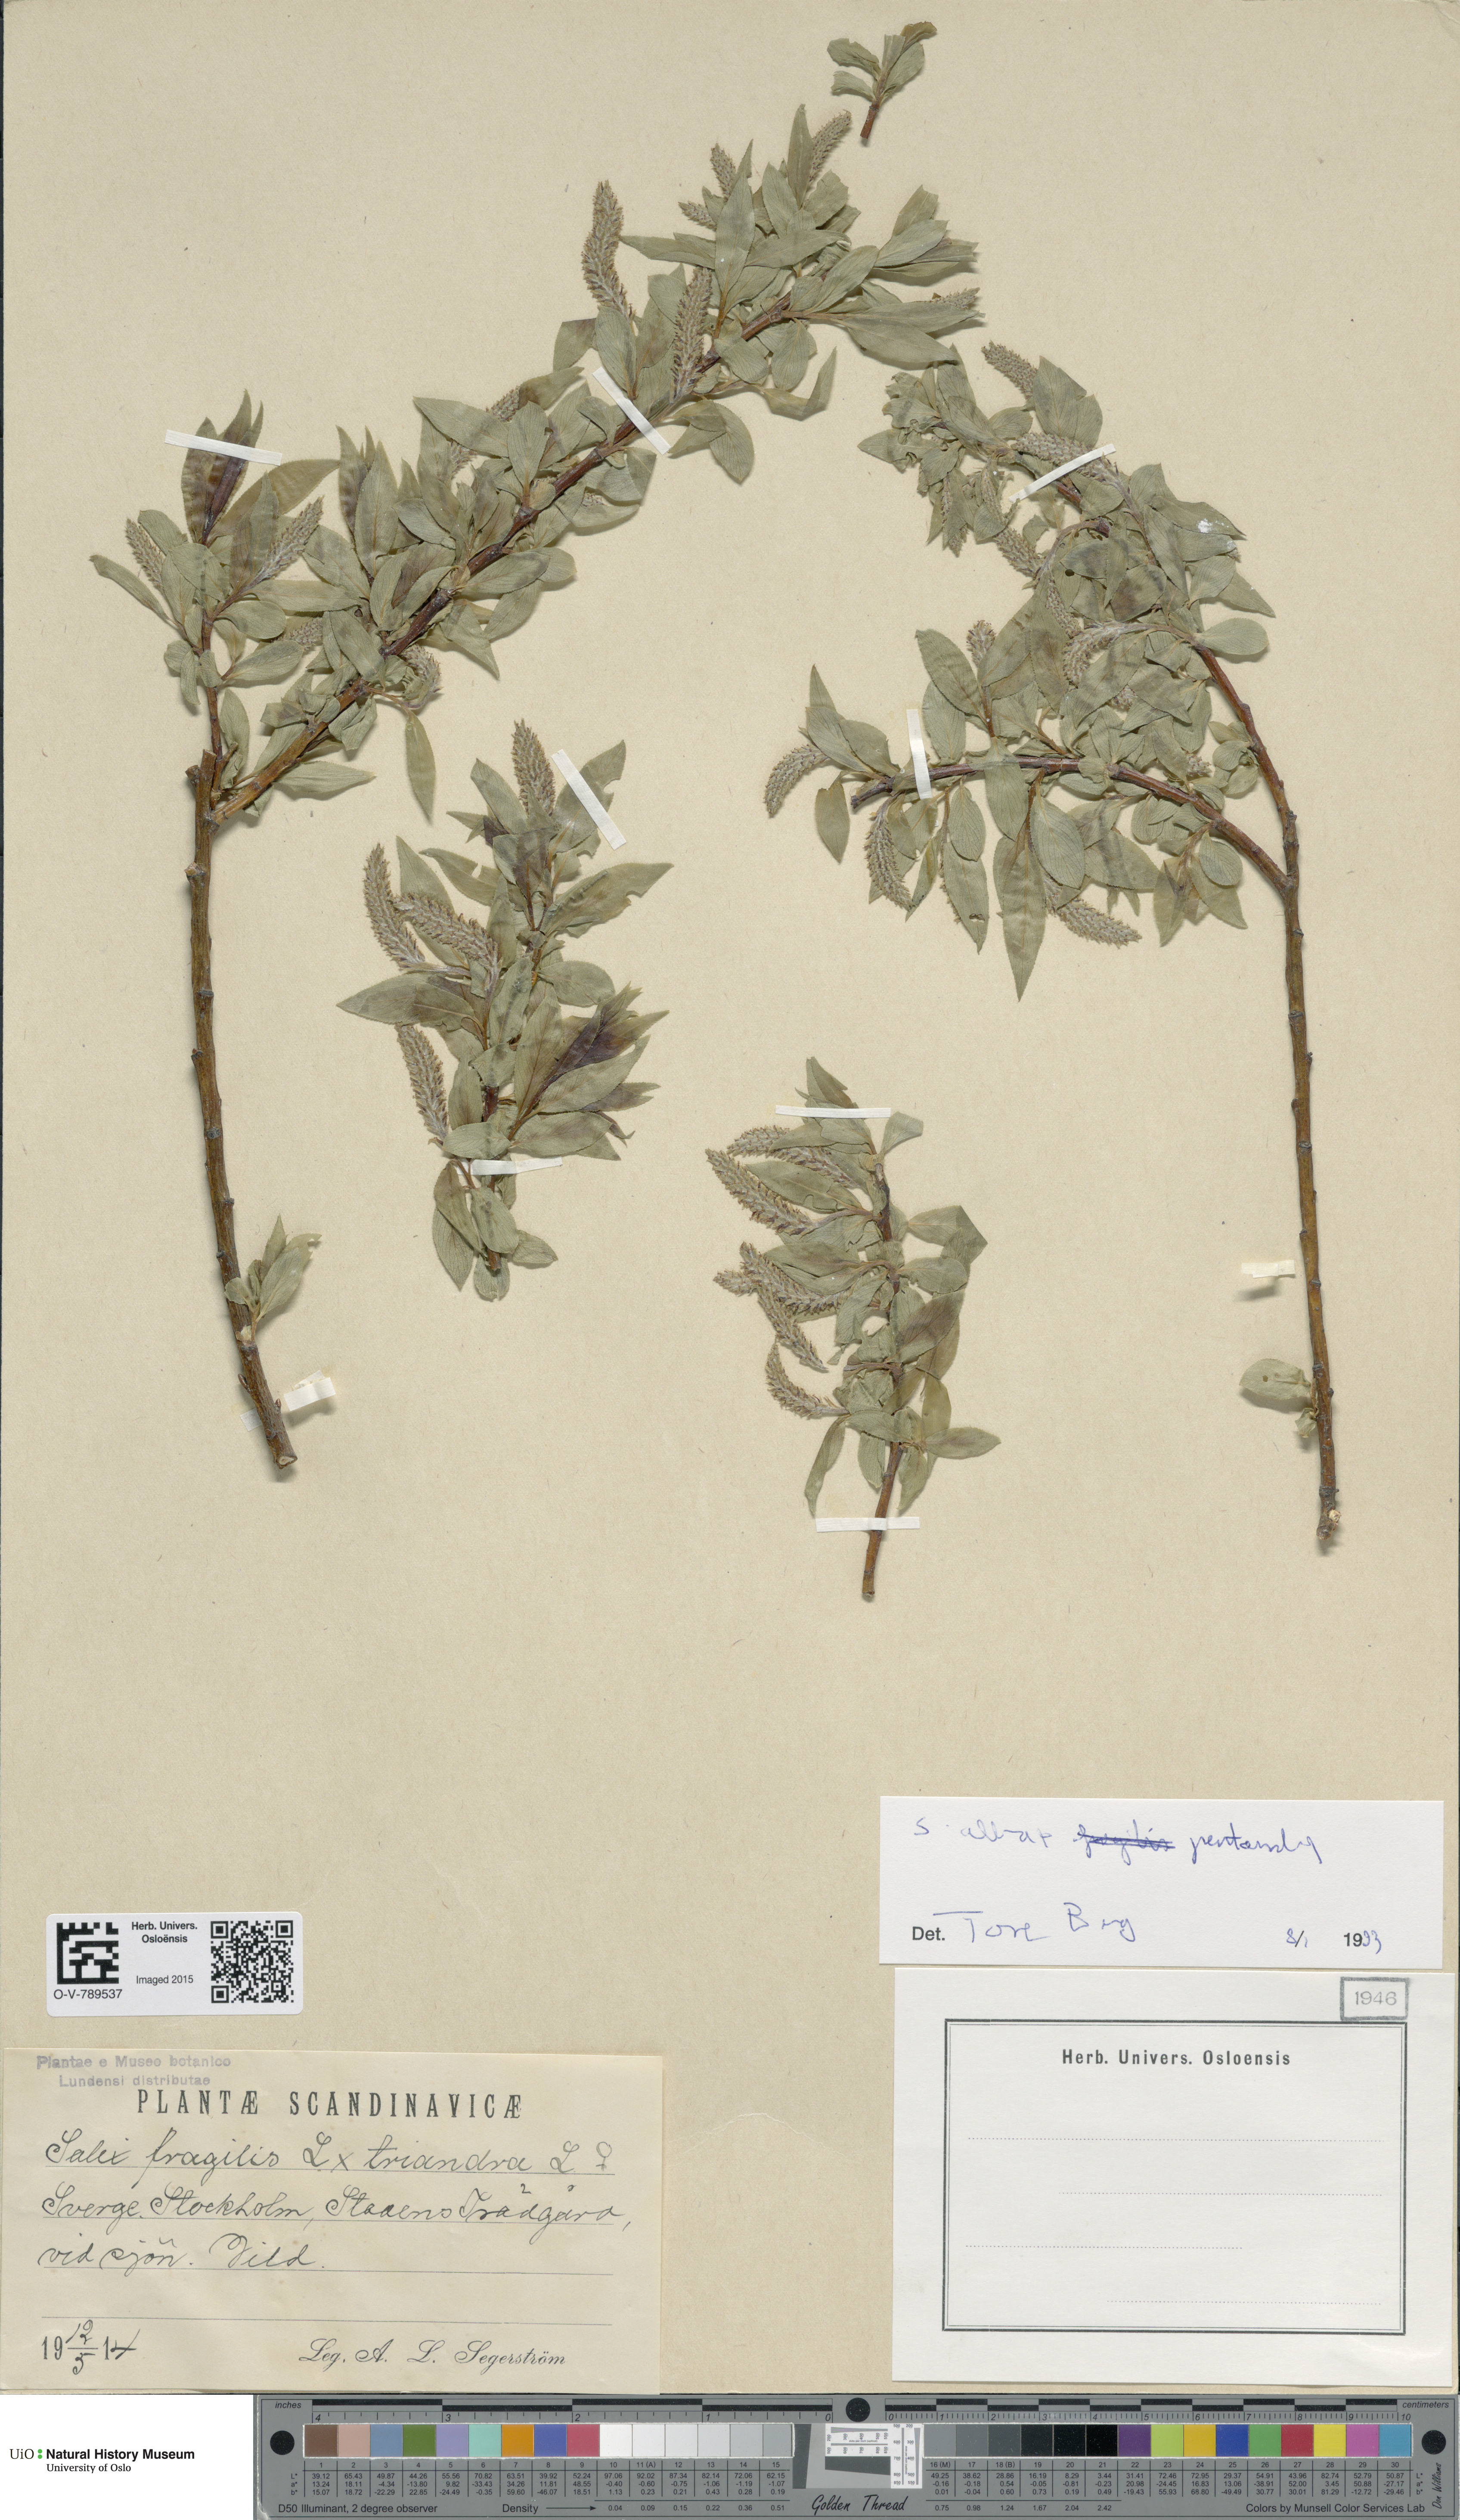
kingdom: Plantae
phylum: Tracheophyta
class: Magnoliopsida
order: Malpighiales
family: Salicaceae
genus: Salix
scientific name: Salix
